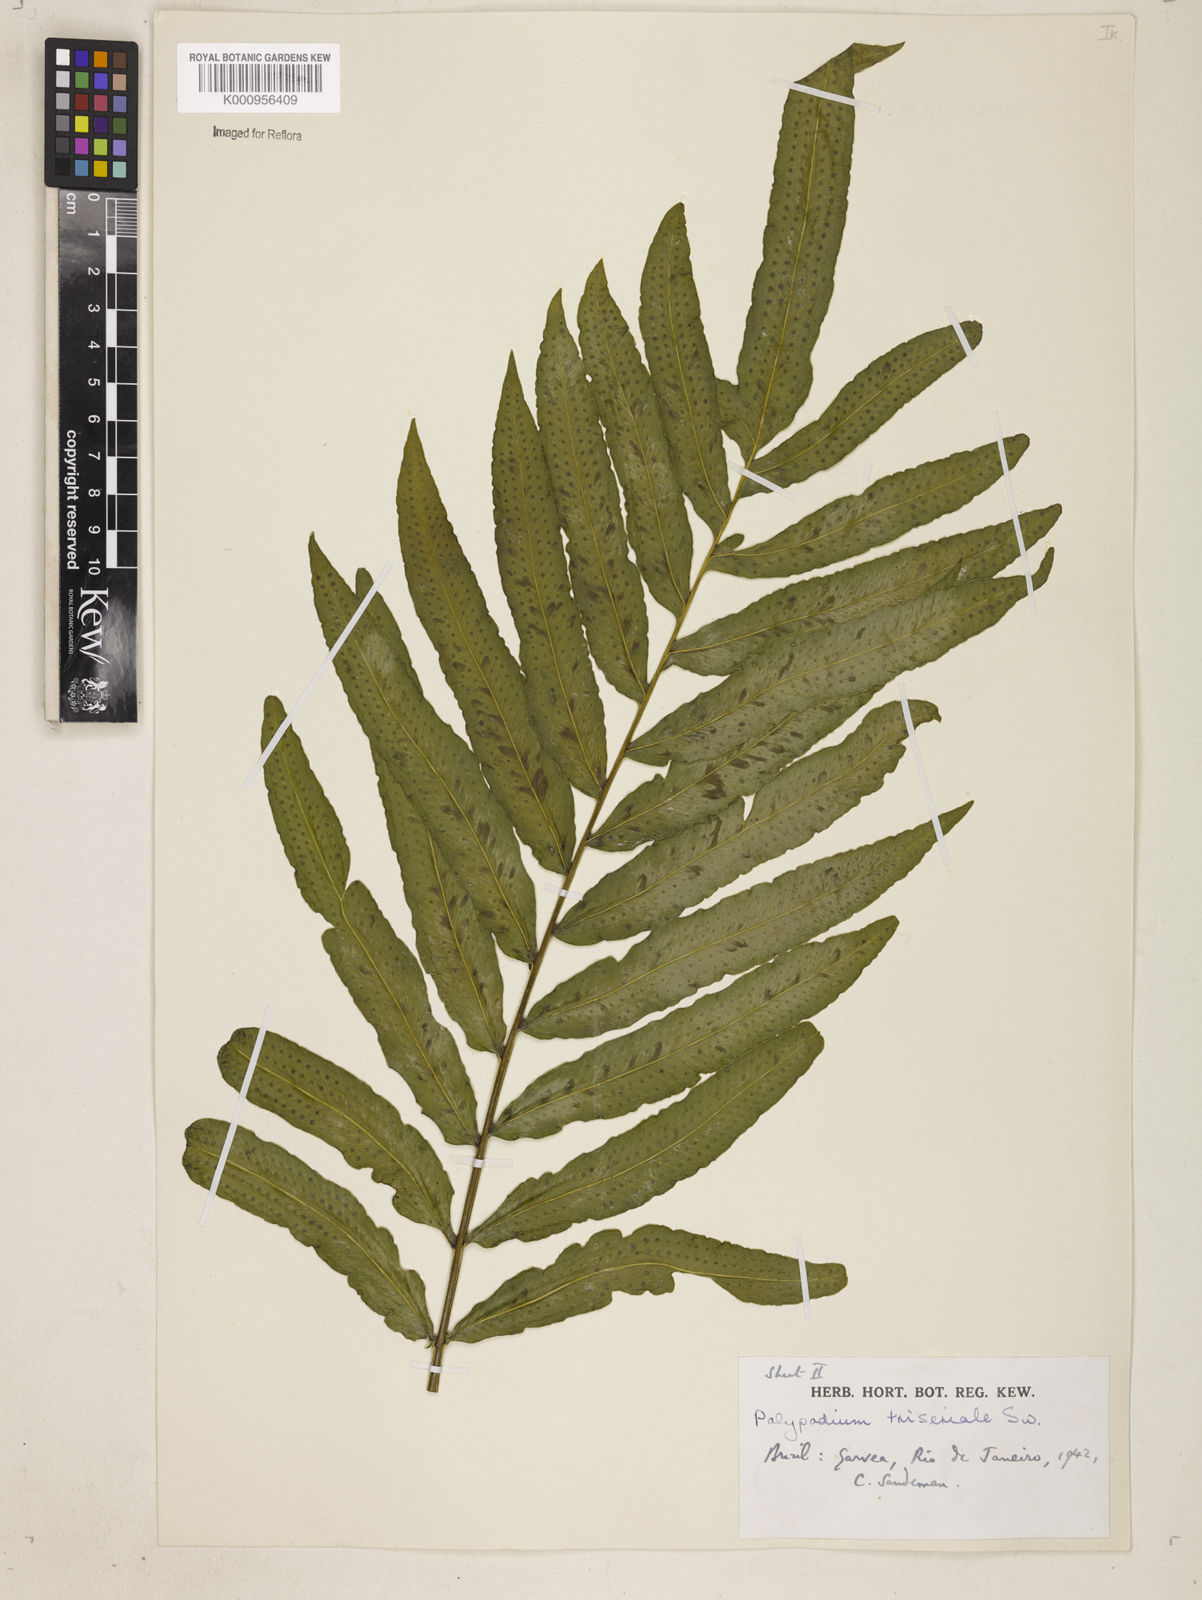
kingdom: Plantae
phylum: Tracheophyta
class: Polypodiopsida
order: Polypodiales
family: Polypodiaceae
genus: Serpocaulon
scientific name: Serpocaulon triseriale
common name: Angle-vein fern
